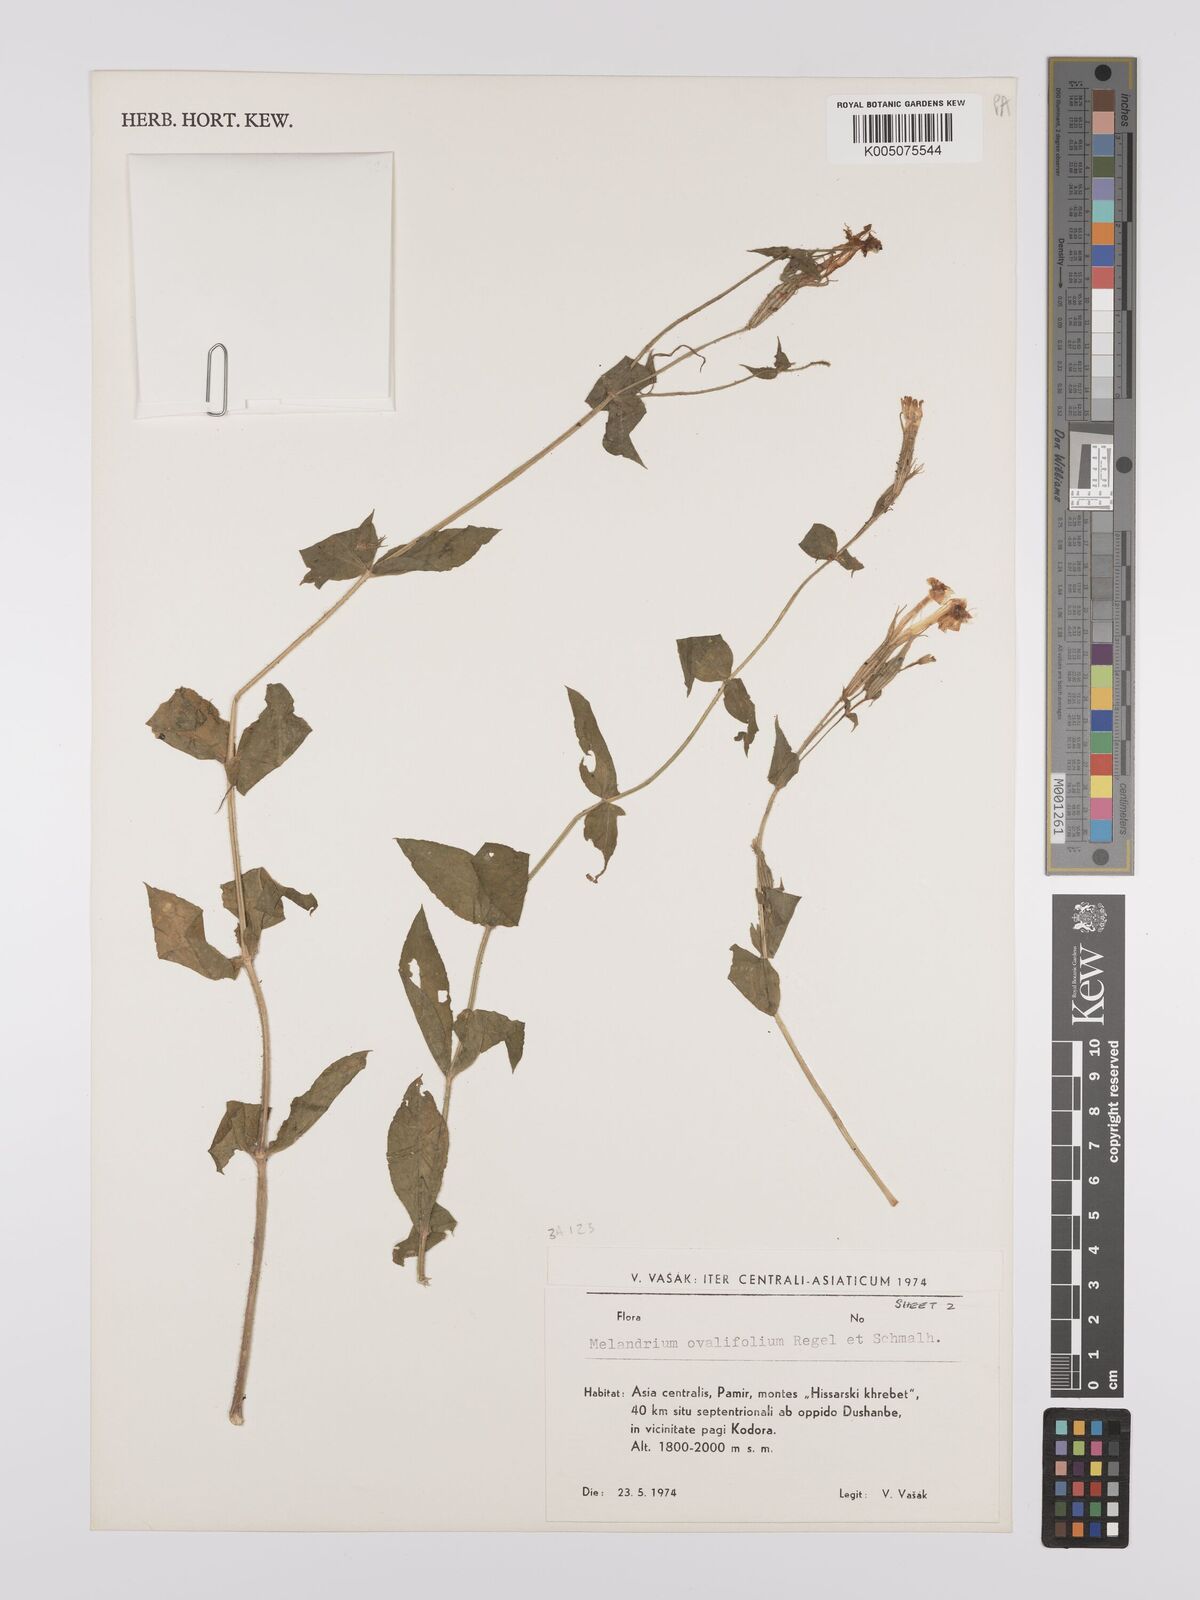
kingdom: Plantae
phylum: Tracheophyta
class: Magnoliopsida
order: Caryophyllales
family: Caryophyllaceae
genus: Silene
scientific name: Silene odontopetala
